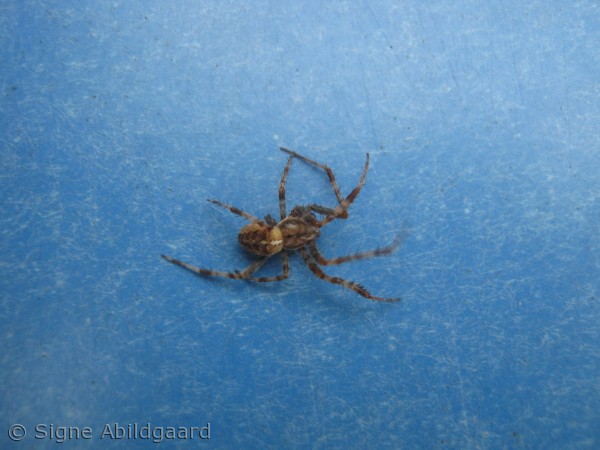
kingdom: Animalia
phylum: Arthropoda
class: Arachnida
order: Araneae
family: Araneidae
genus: Araneus
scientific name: Araneus diadematus
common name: Korsedderkop
